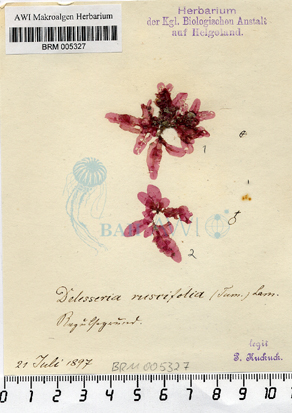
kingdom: Plantae
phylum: Rhodophyta
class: Florideophyceae
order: Ceramiales
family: Delesseriaceae
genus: Apoglossum
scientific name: Apoglossum ruscifolium
